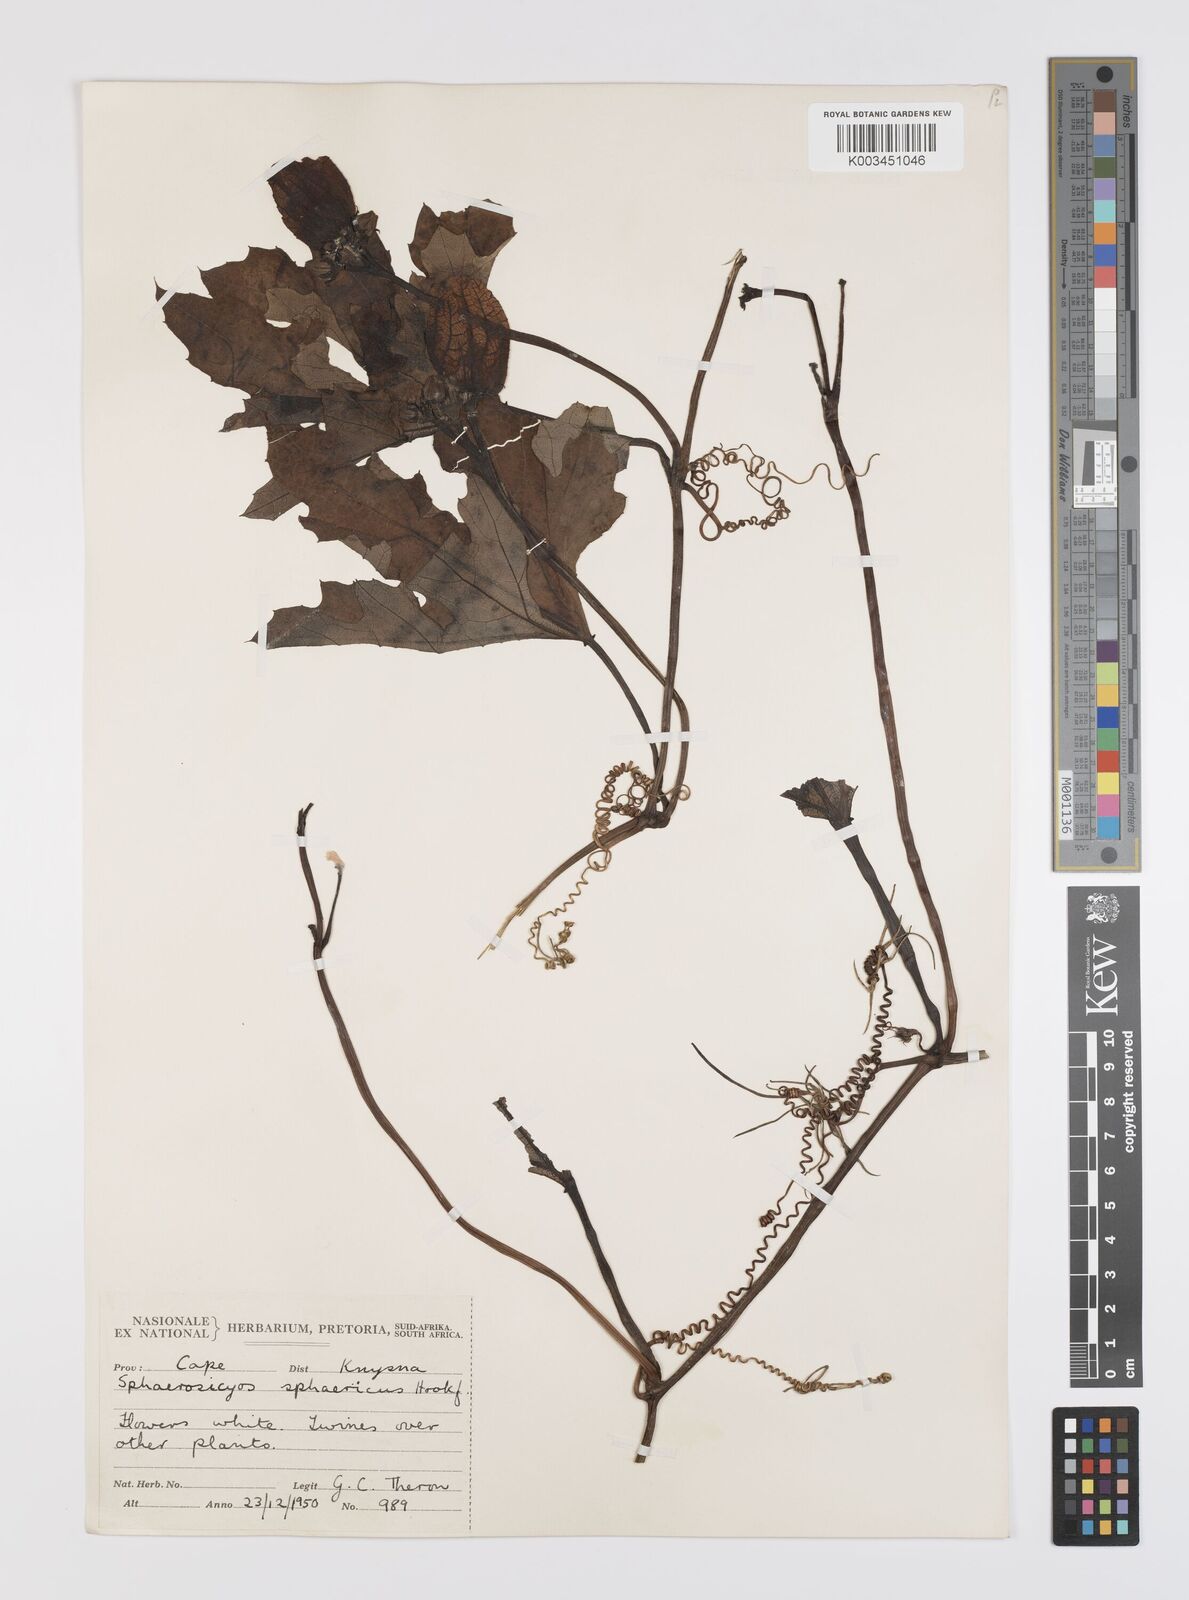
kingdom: Plantae
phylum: Tracheophyta
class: Magnoliopsida
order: Cucurbitales
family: Cucurbitaceae
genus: Lagenaria
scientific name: Lagenaria sphaerica
